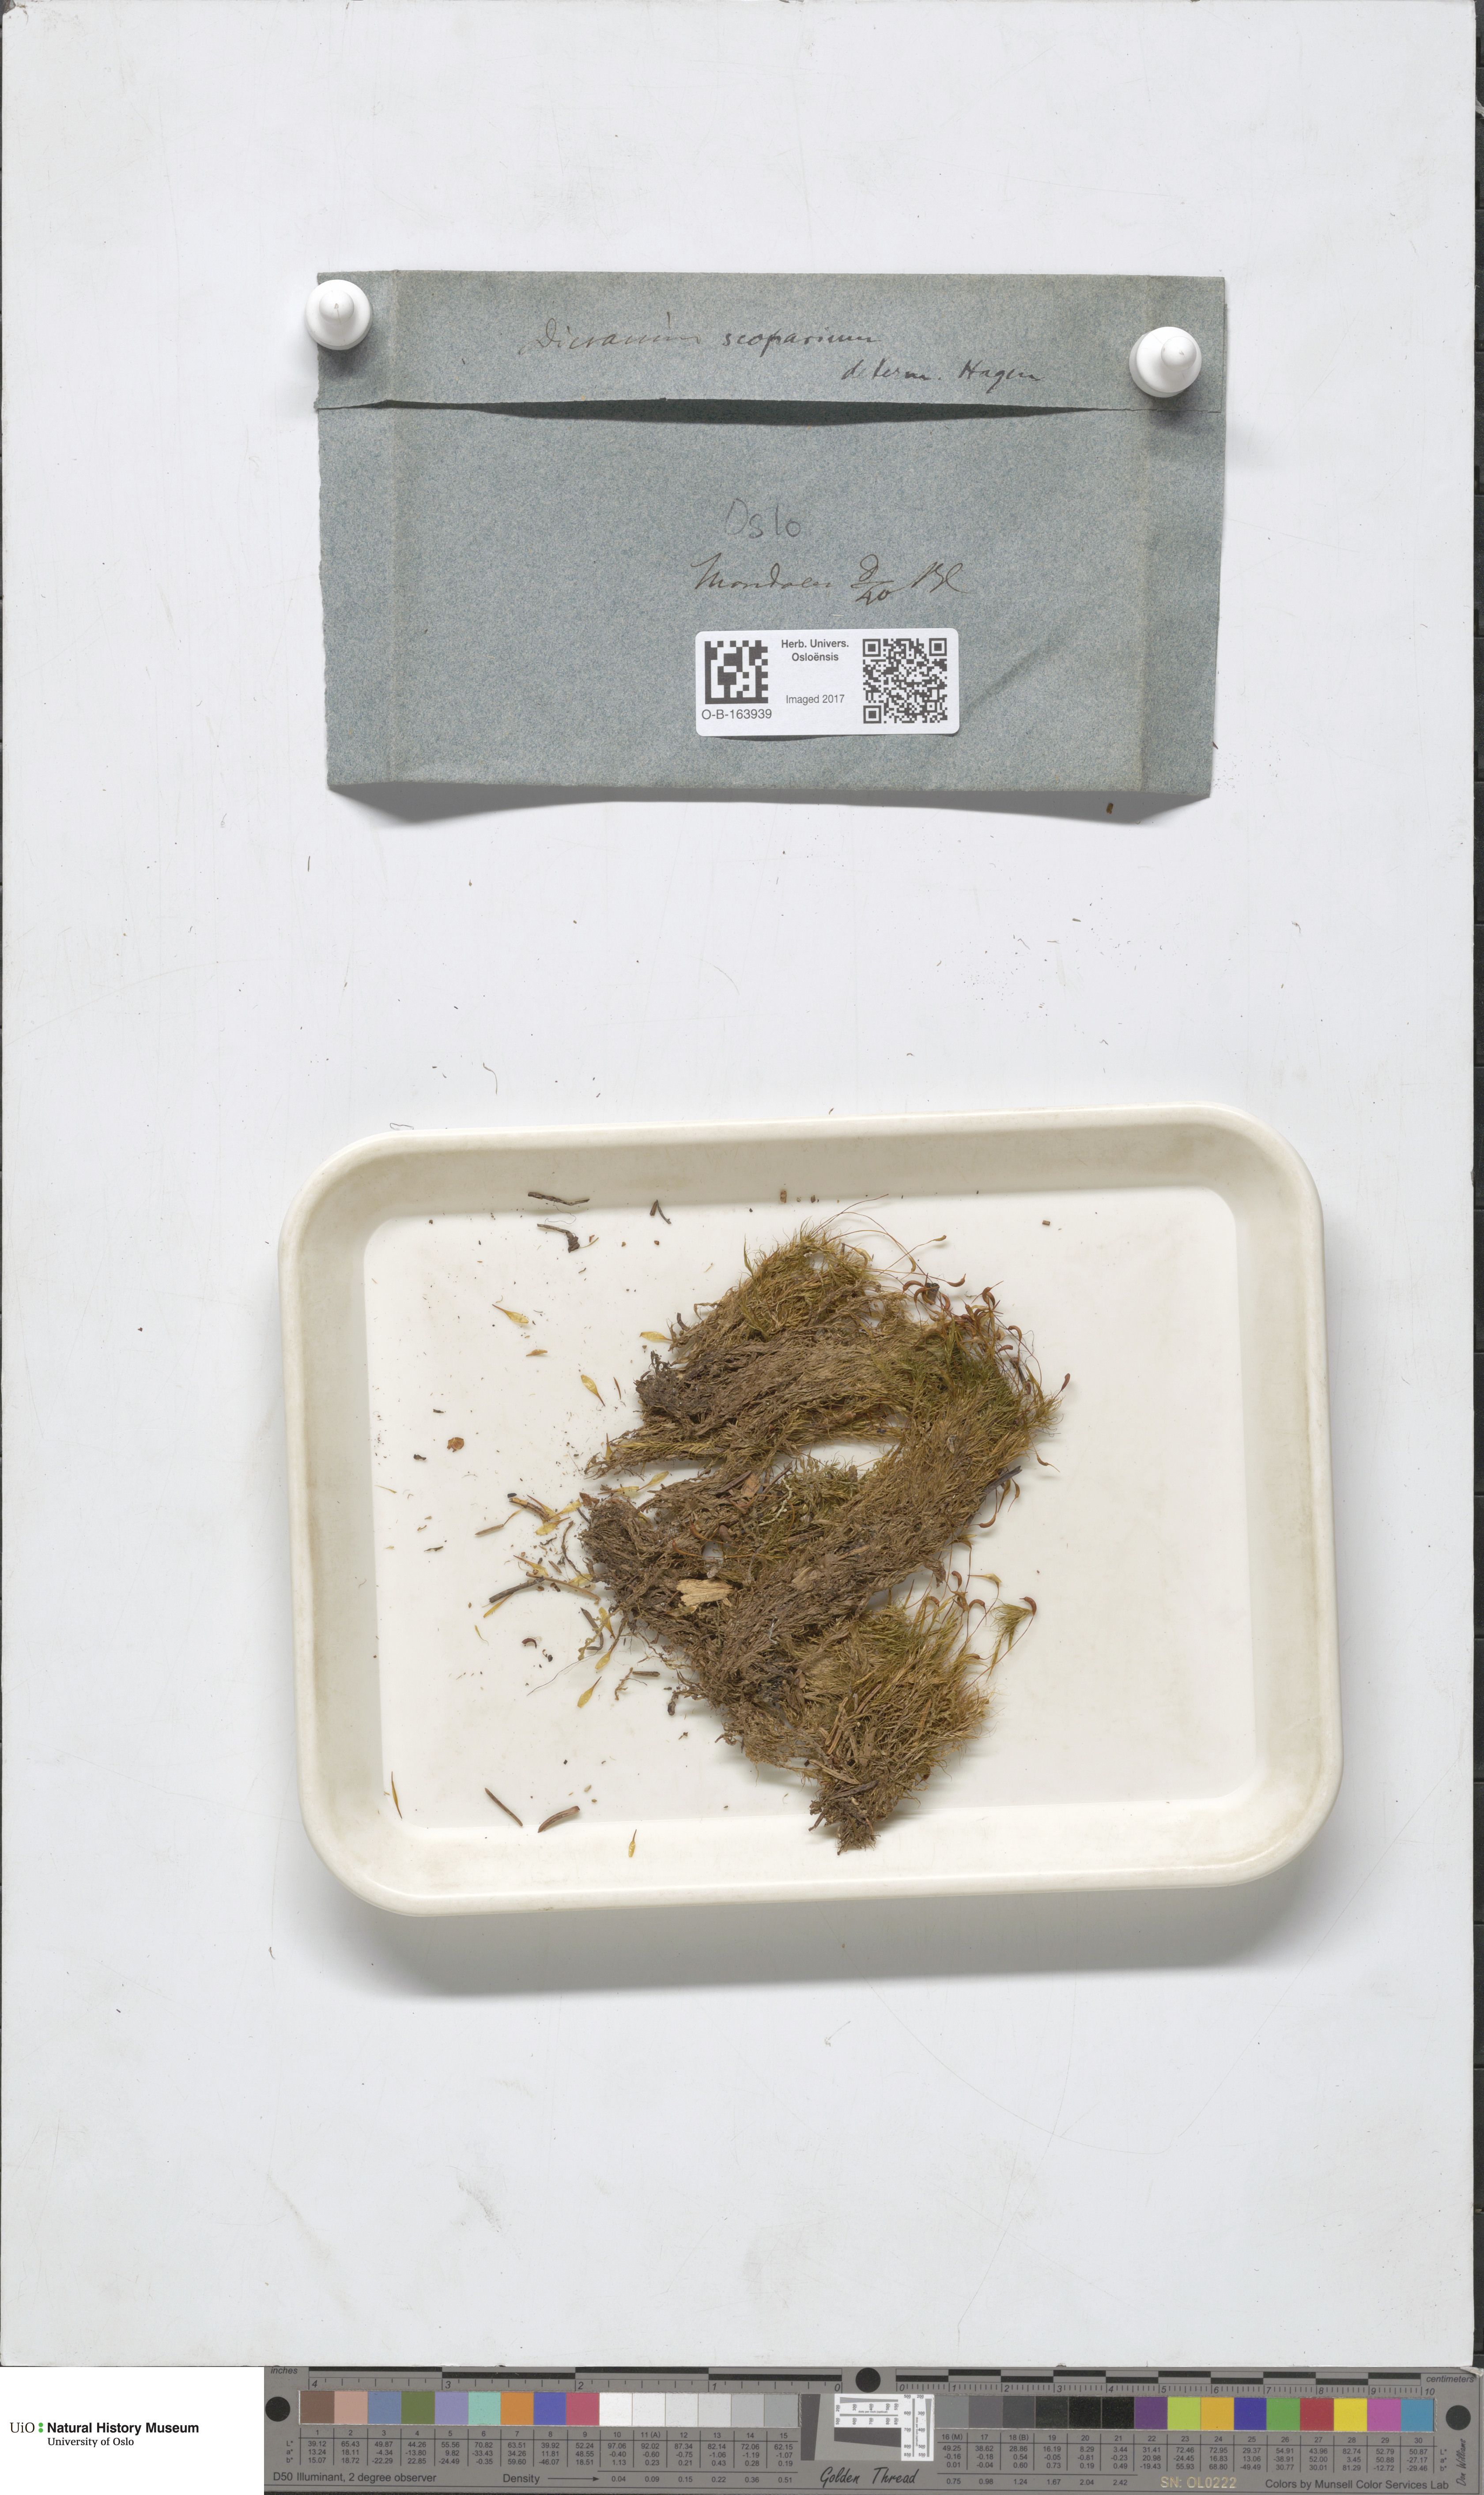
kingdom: Plantae
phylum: Bryophyta
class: Bryopsida
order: Dicranales
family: Dicranaceae
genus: Dicranum
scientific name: Dicranum scoparium
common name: Broom fork-moss
